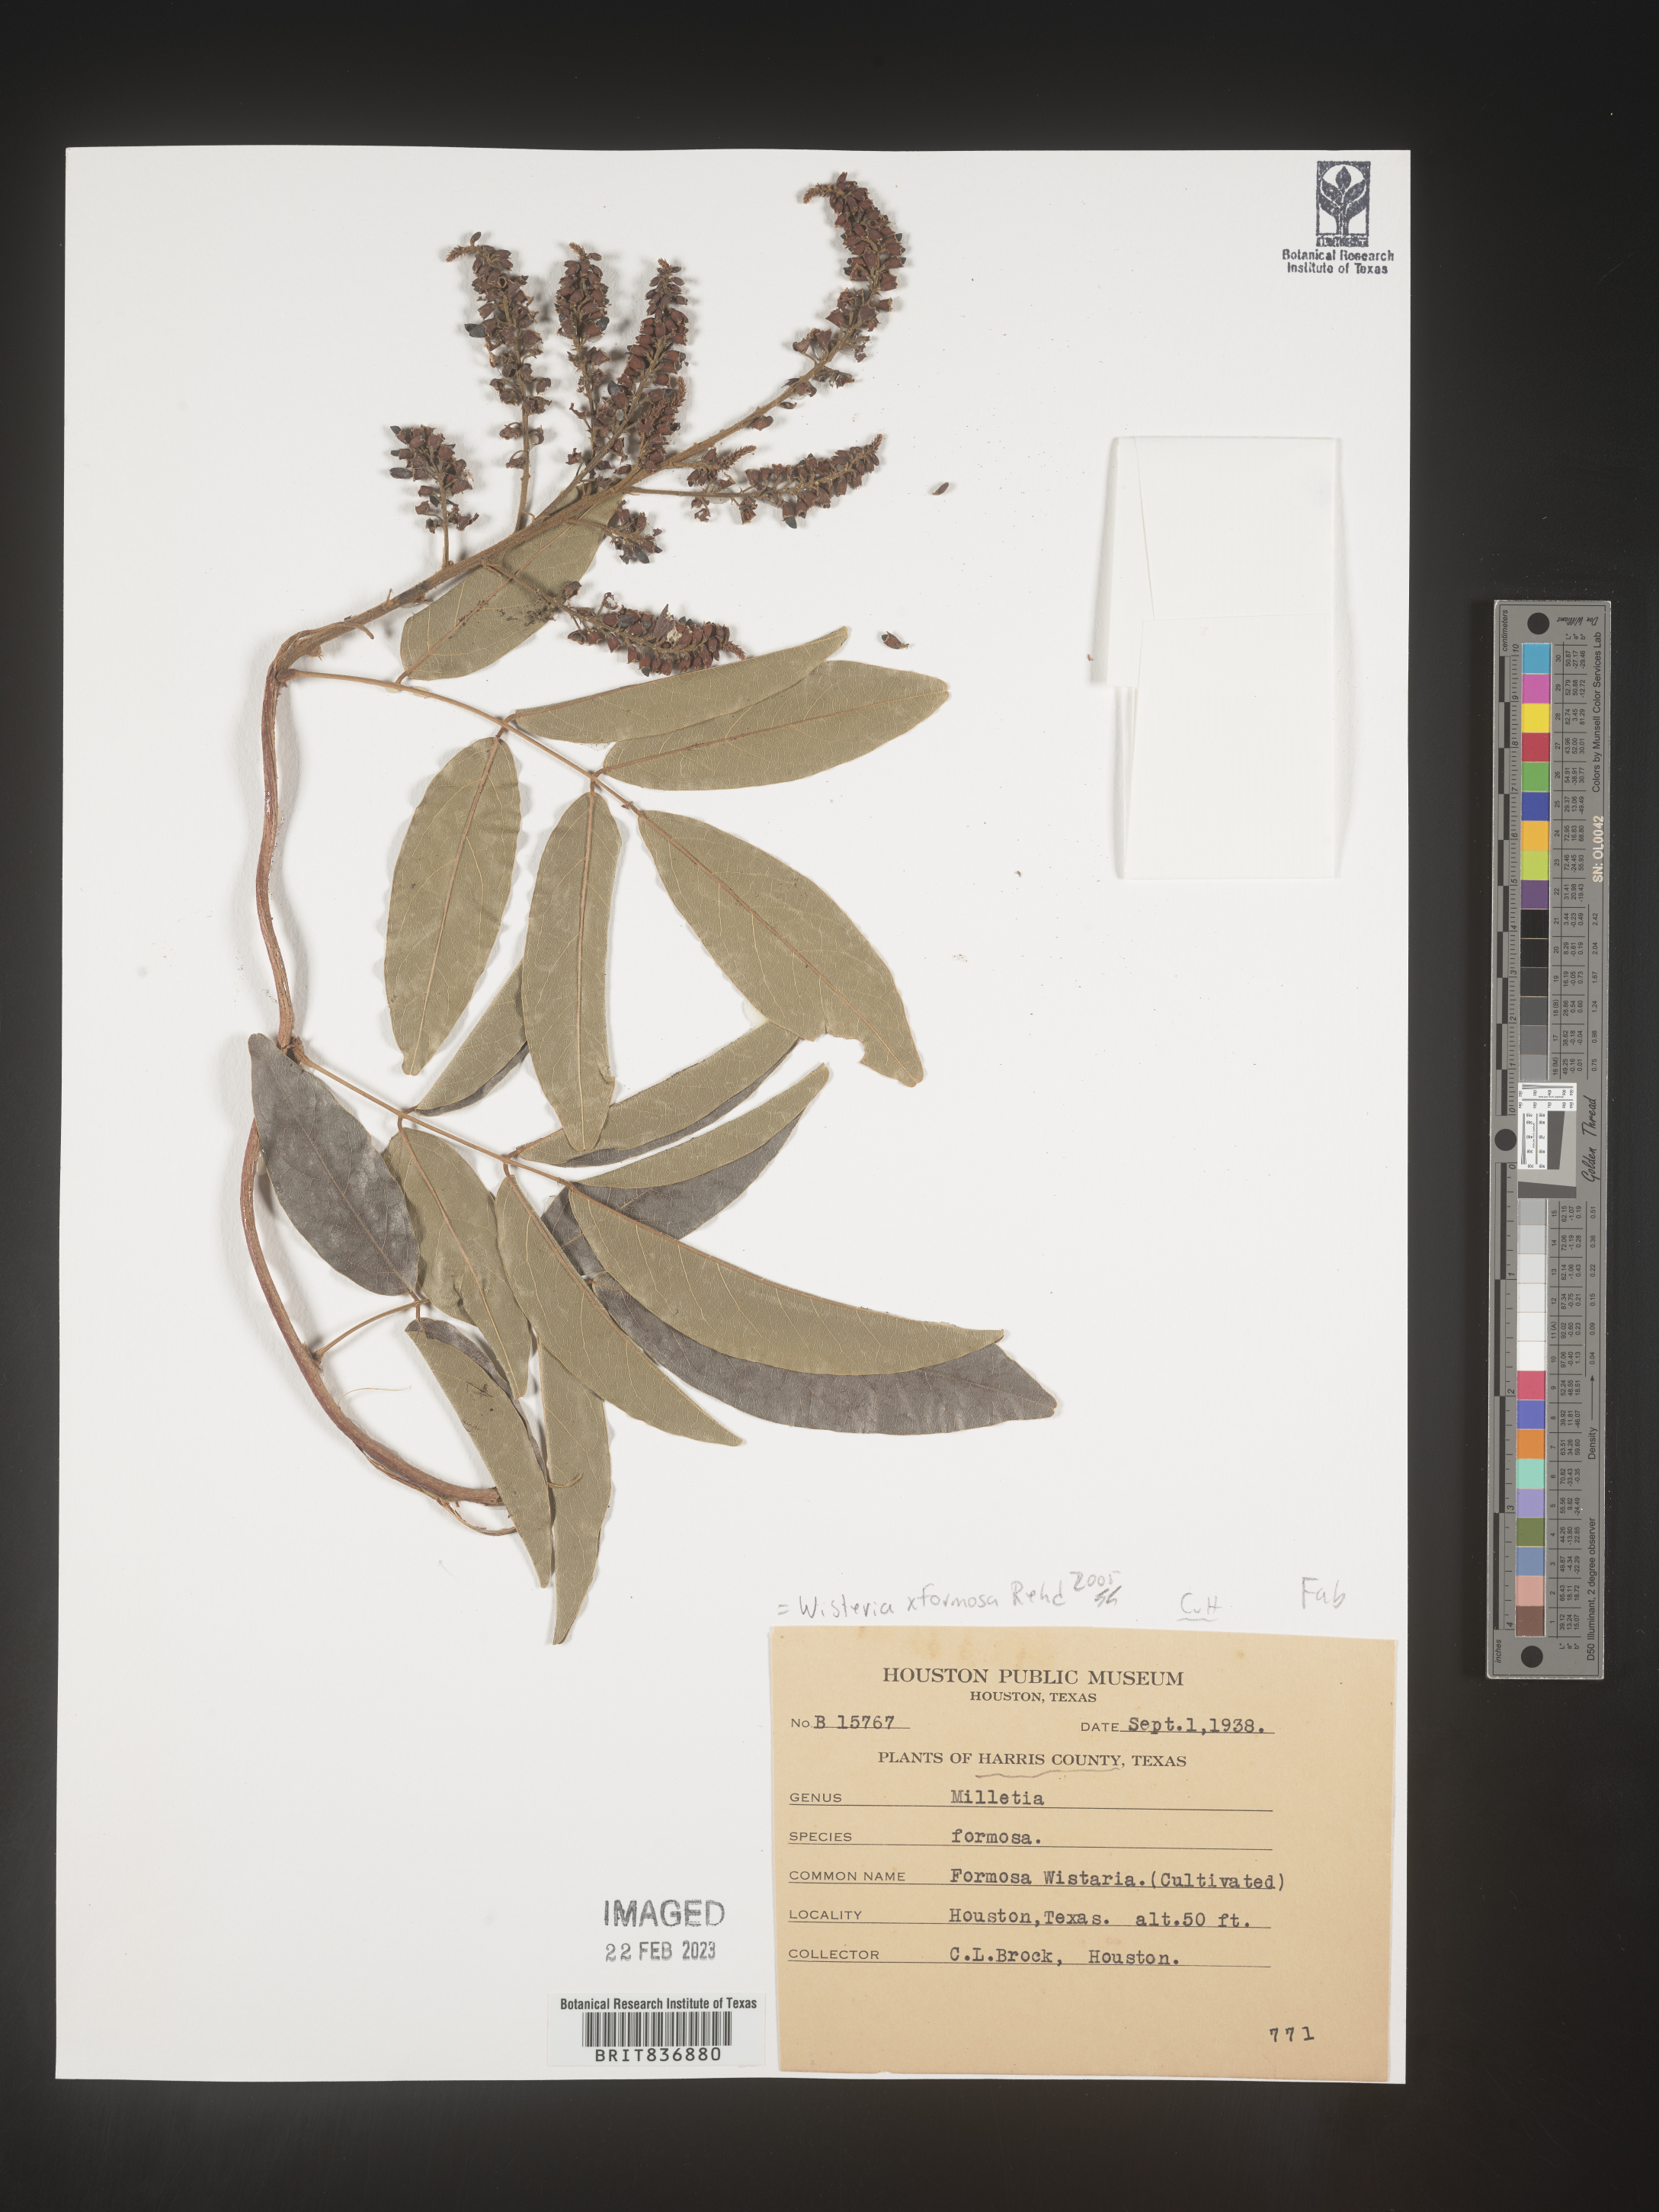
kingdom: Plantae
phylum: Tracheophyta
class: Magnoliopsida
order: Fabales
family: Fabaceae
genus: Wisteria
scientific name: Wisteria
